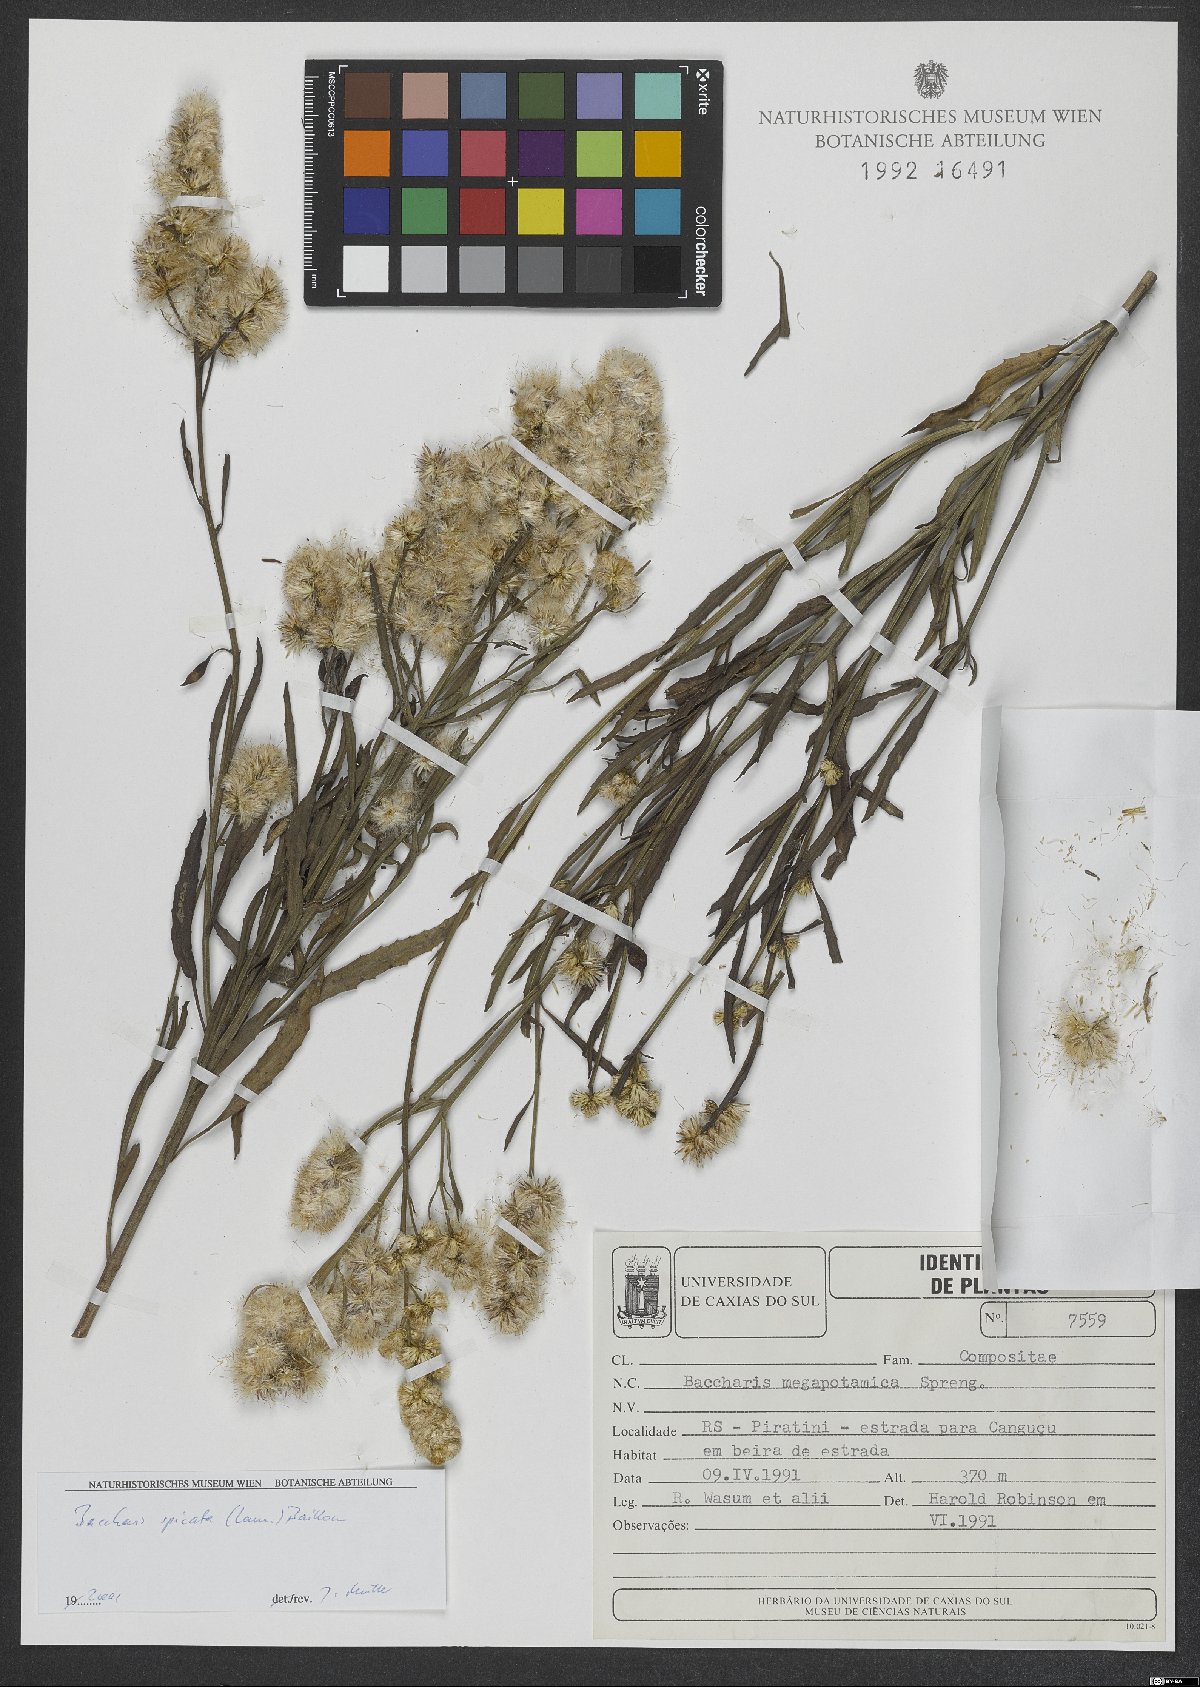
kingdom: Plantae
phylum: Tracheophyta
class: Magnoliopsida
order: Asterales
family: Asteraceae
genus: Baccharis
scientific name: Baccharis spicata
